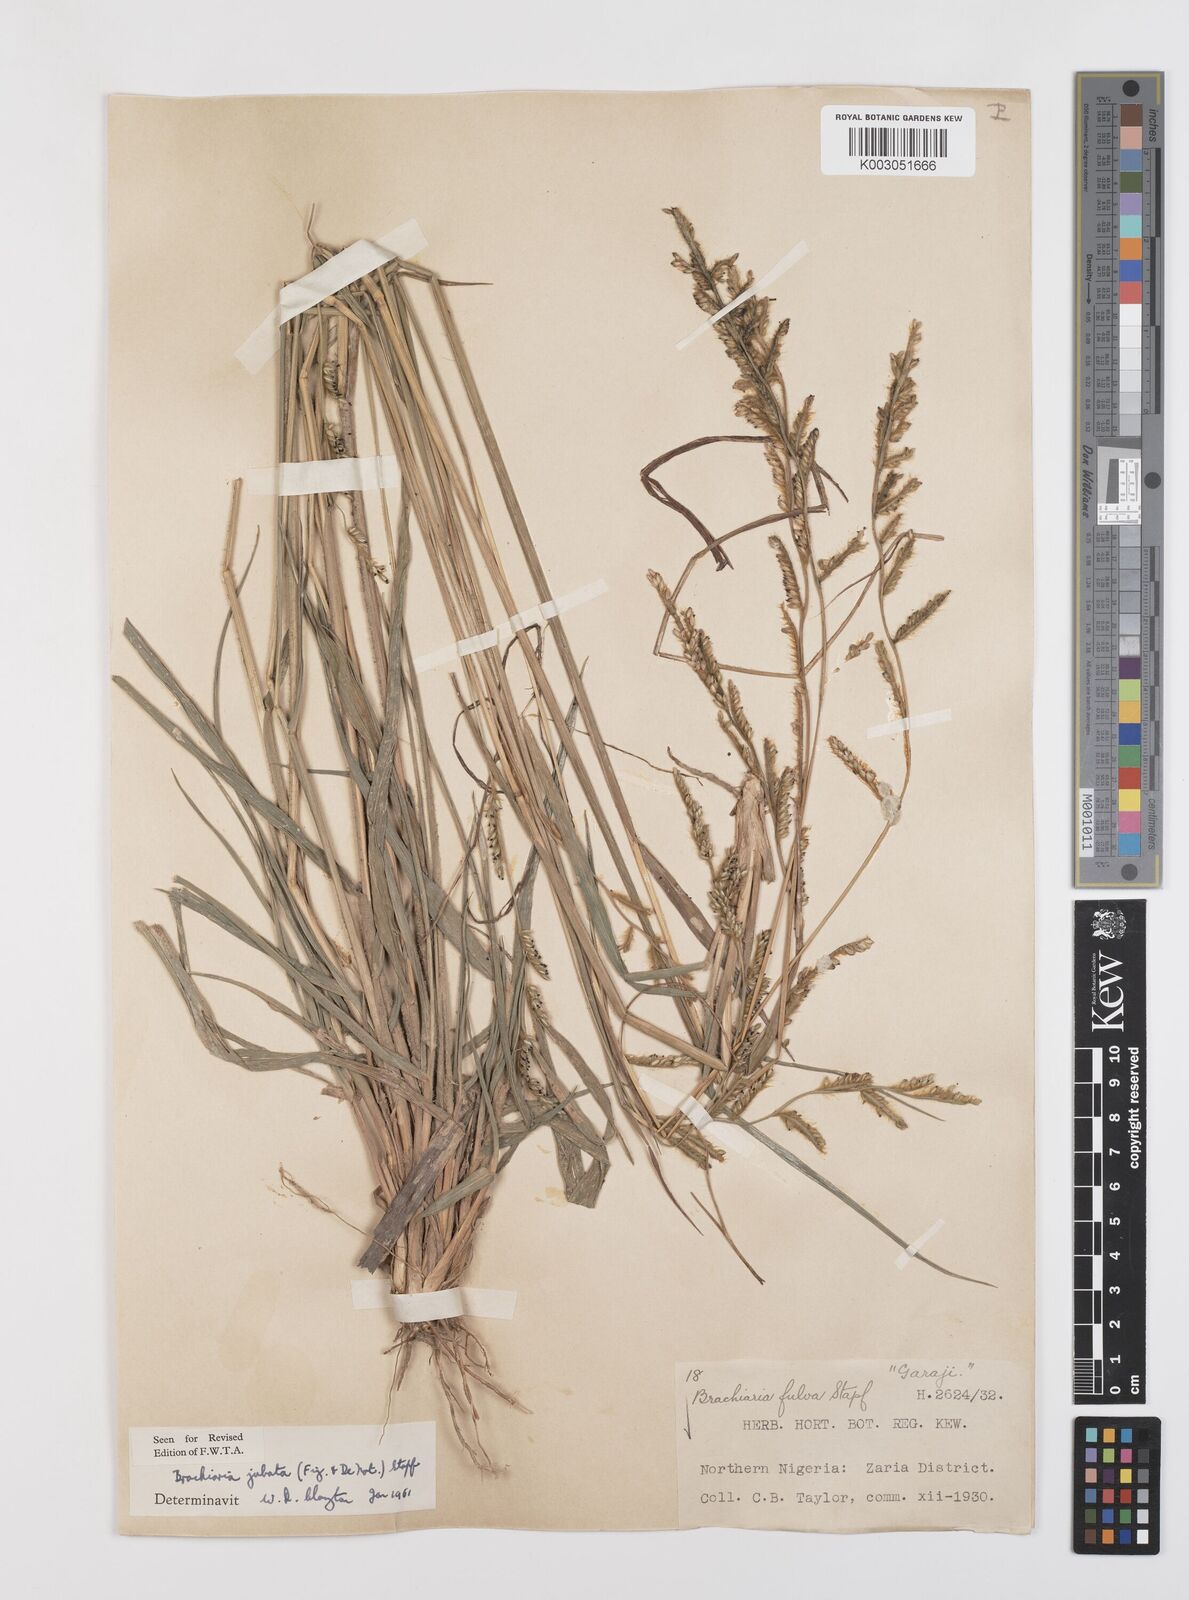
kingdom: Plantae
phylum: Tracheophyta
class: Liliopsida
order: Poales
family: Poaceae
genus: Urochloa
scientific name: Urochloa jubata
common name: Buffalograss
